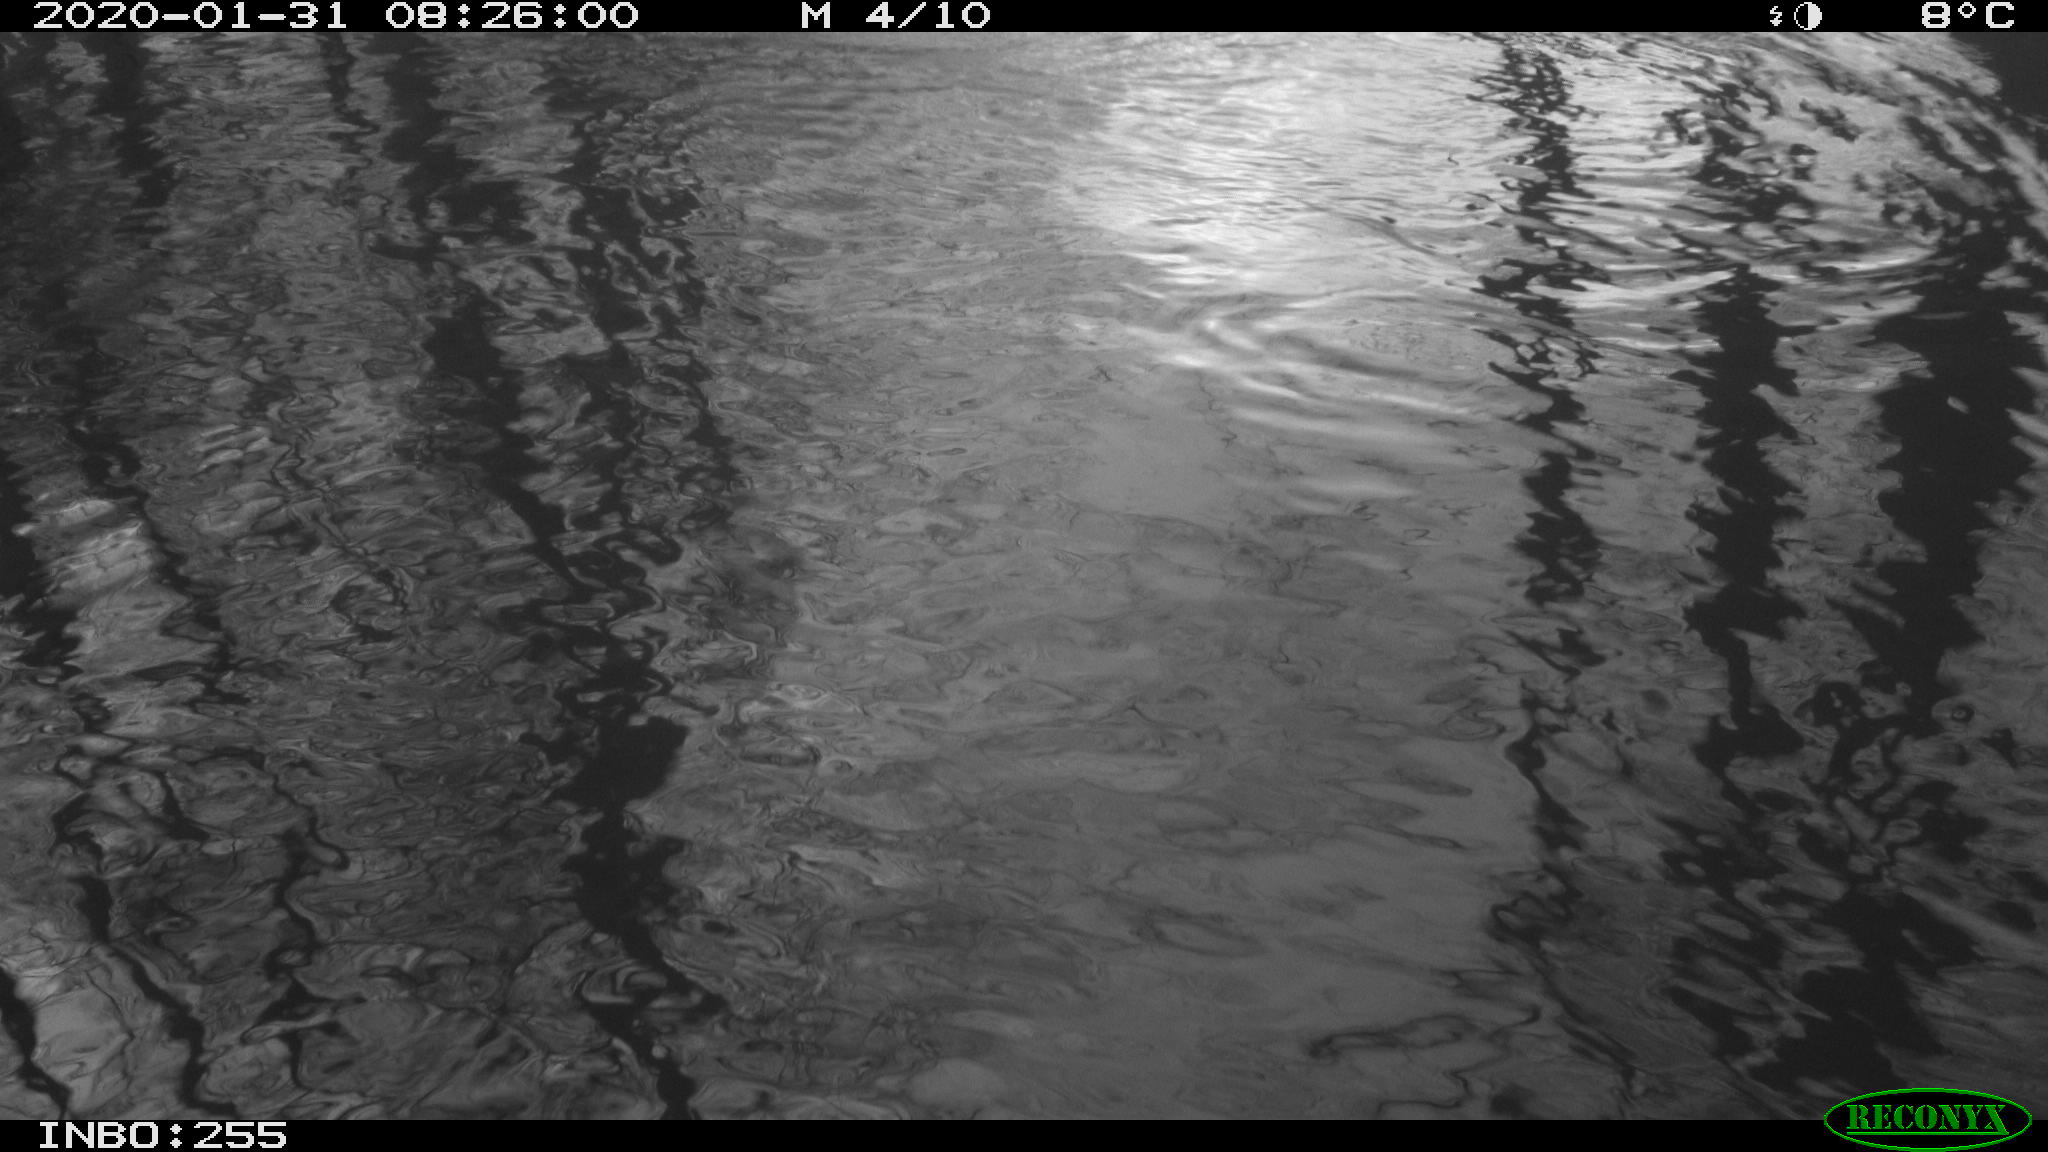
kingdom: Animalia
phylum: Chordata
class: Aves
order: Gruiformes
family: Rallidae
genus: Fulica
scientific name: Fulica atra
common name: Eurasian coot
